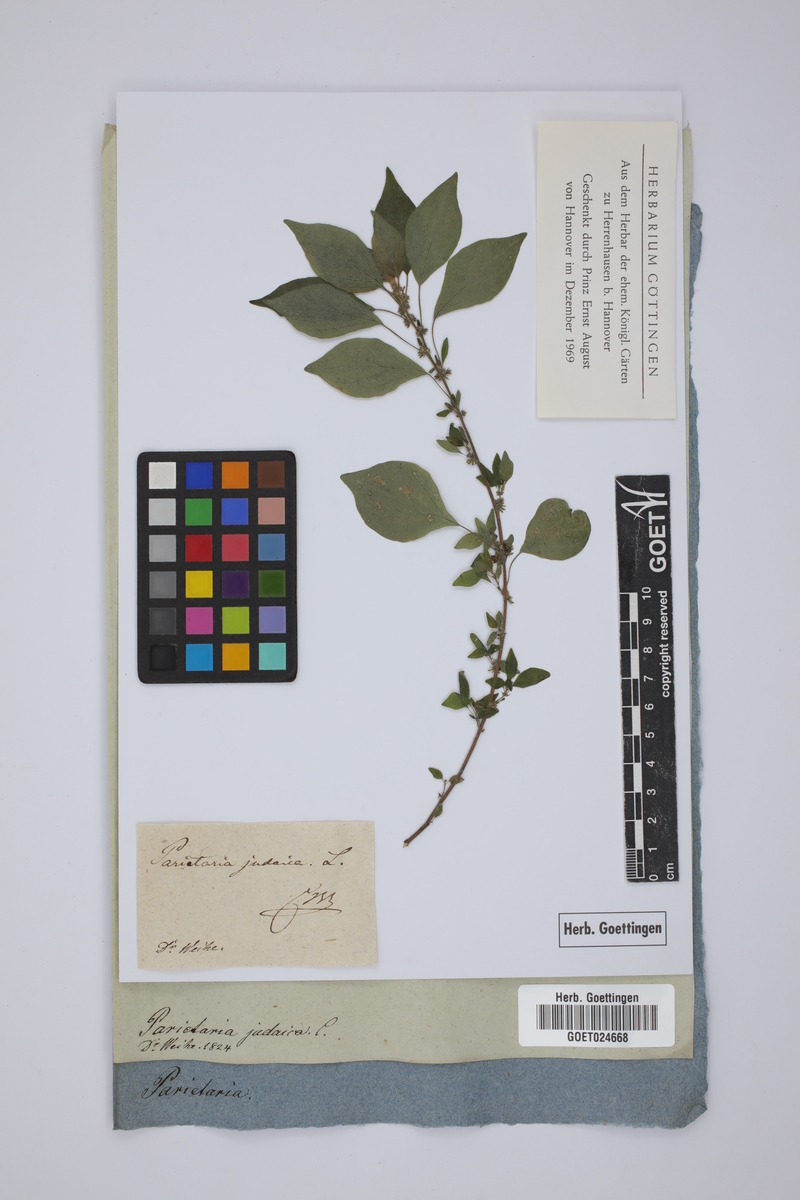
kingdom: Plantae
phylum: Tracheophyta
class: Magnoliopsida
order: Rosales
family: Urticaceae
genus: Parietaria
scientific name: Parietaria judaica
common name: Pellitory-of-the-wall
